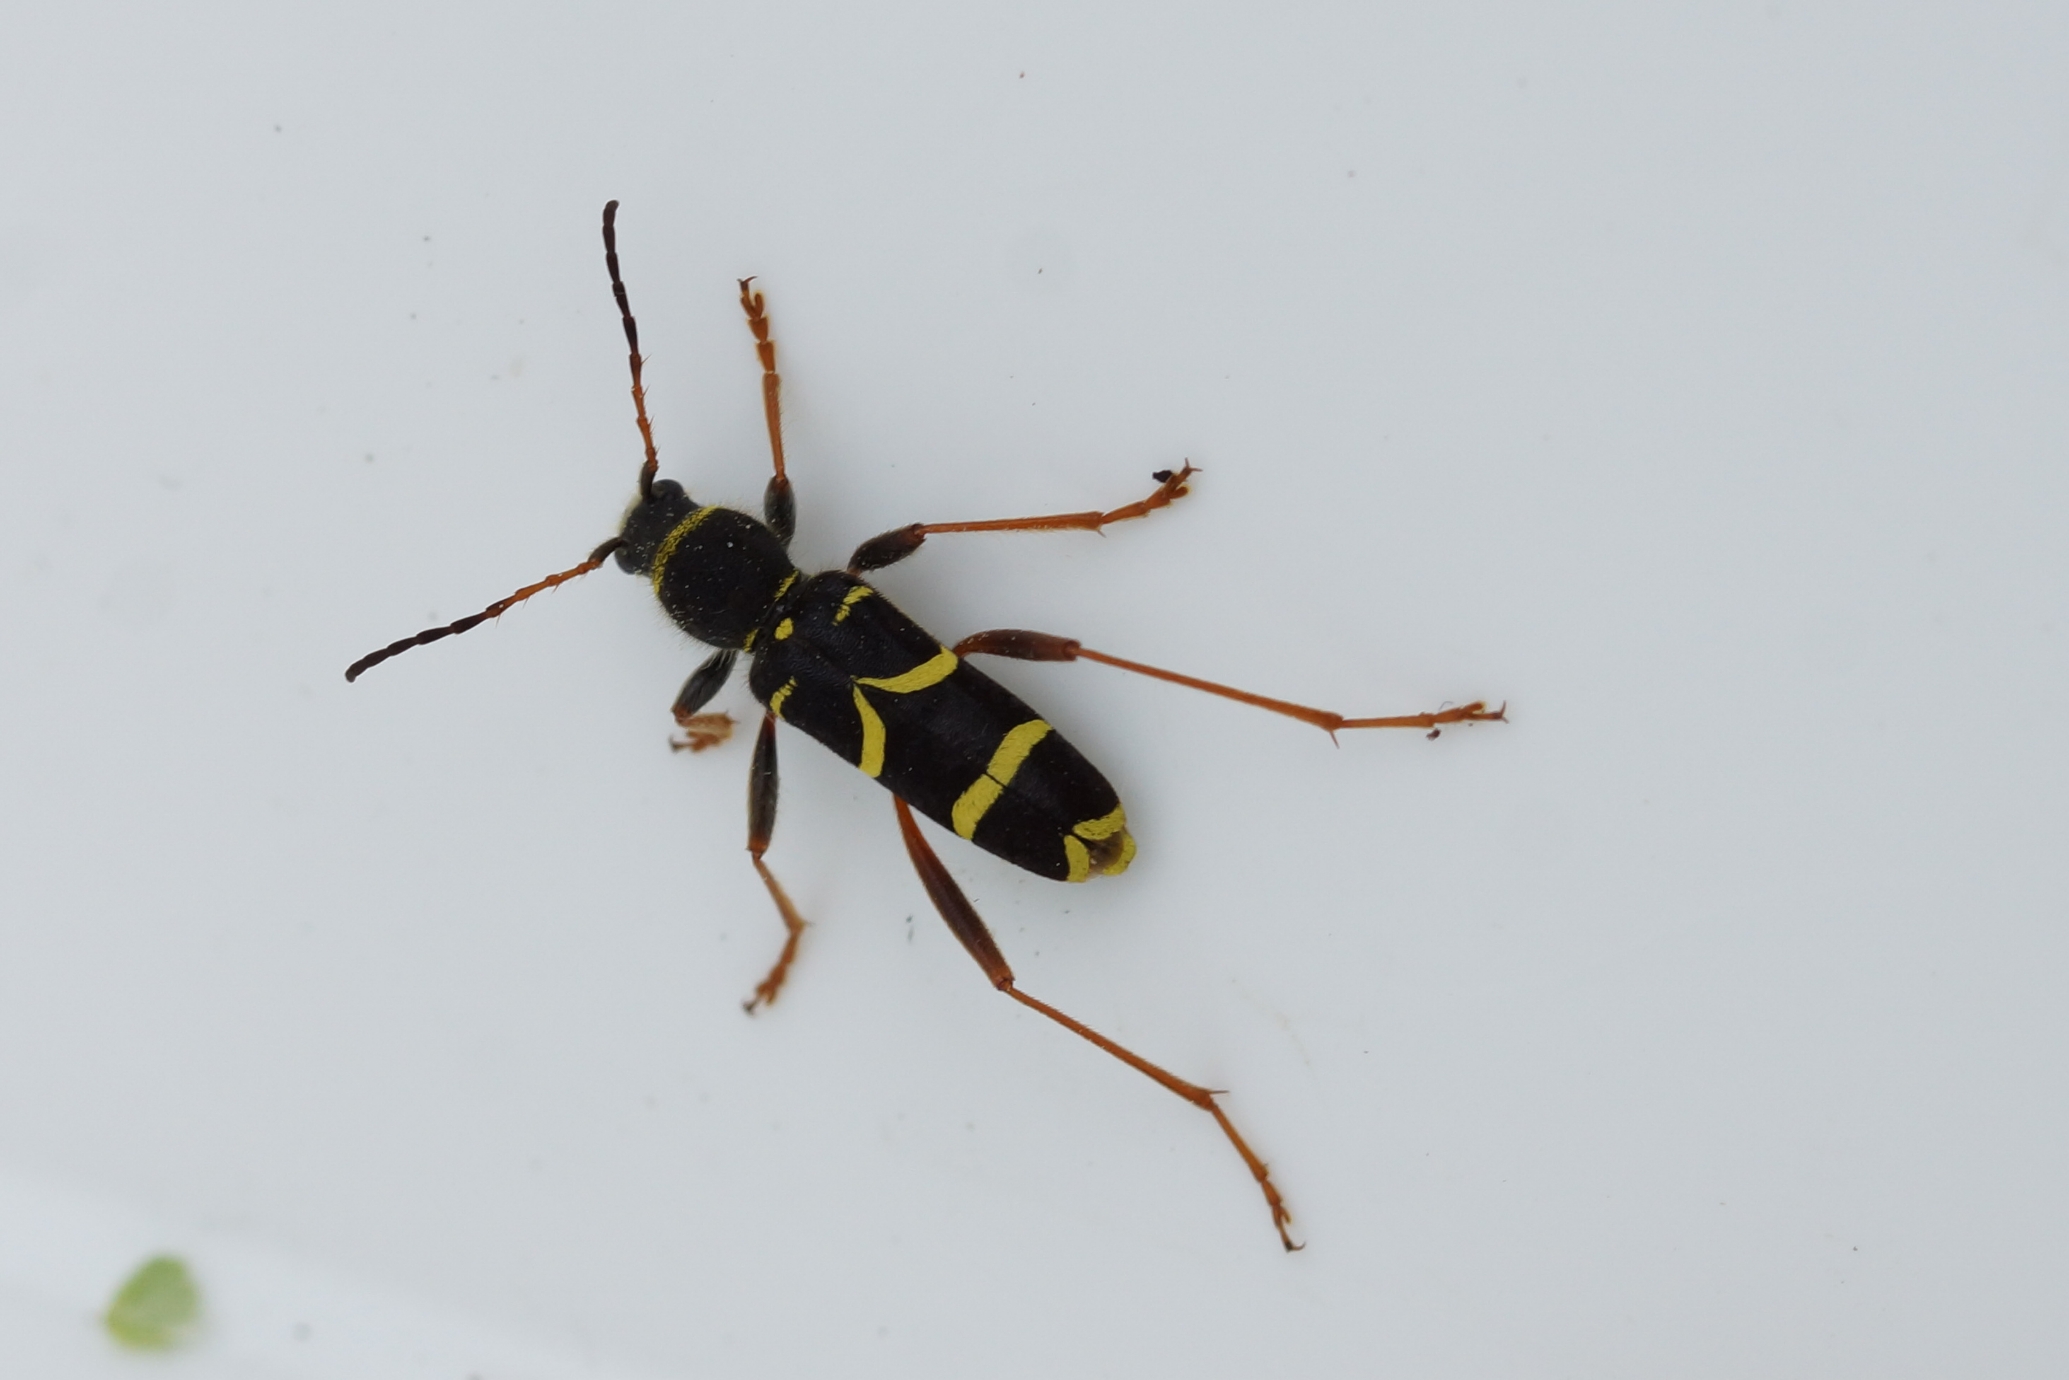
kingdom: Animalia
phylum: Arthropoda
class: Insecta
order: Coleoptera
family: Cerambycidae
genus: Clytus
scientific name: Clytus arietis
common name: Lille hvepsebuk
